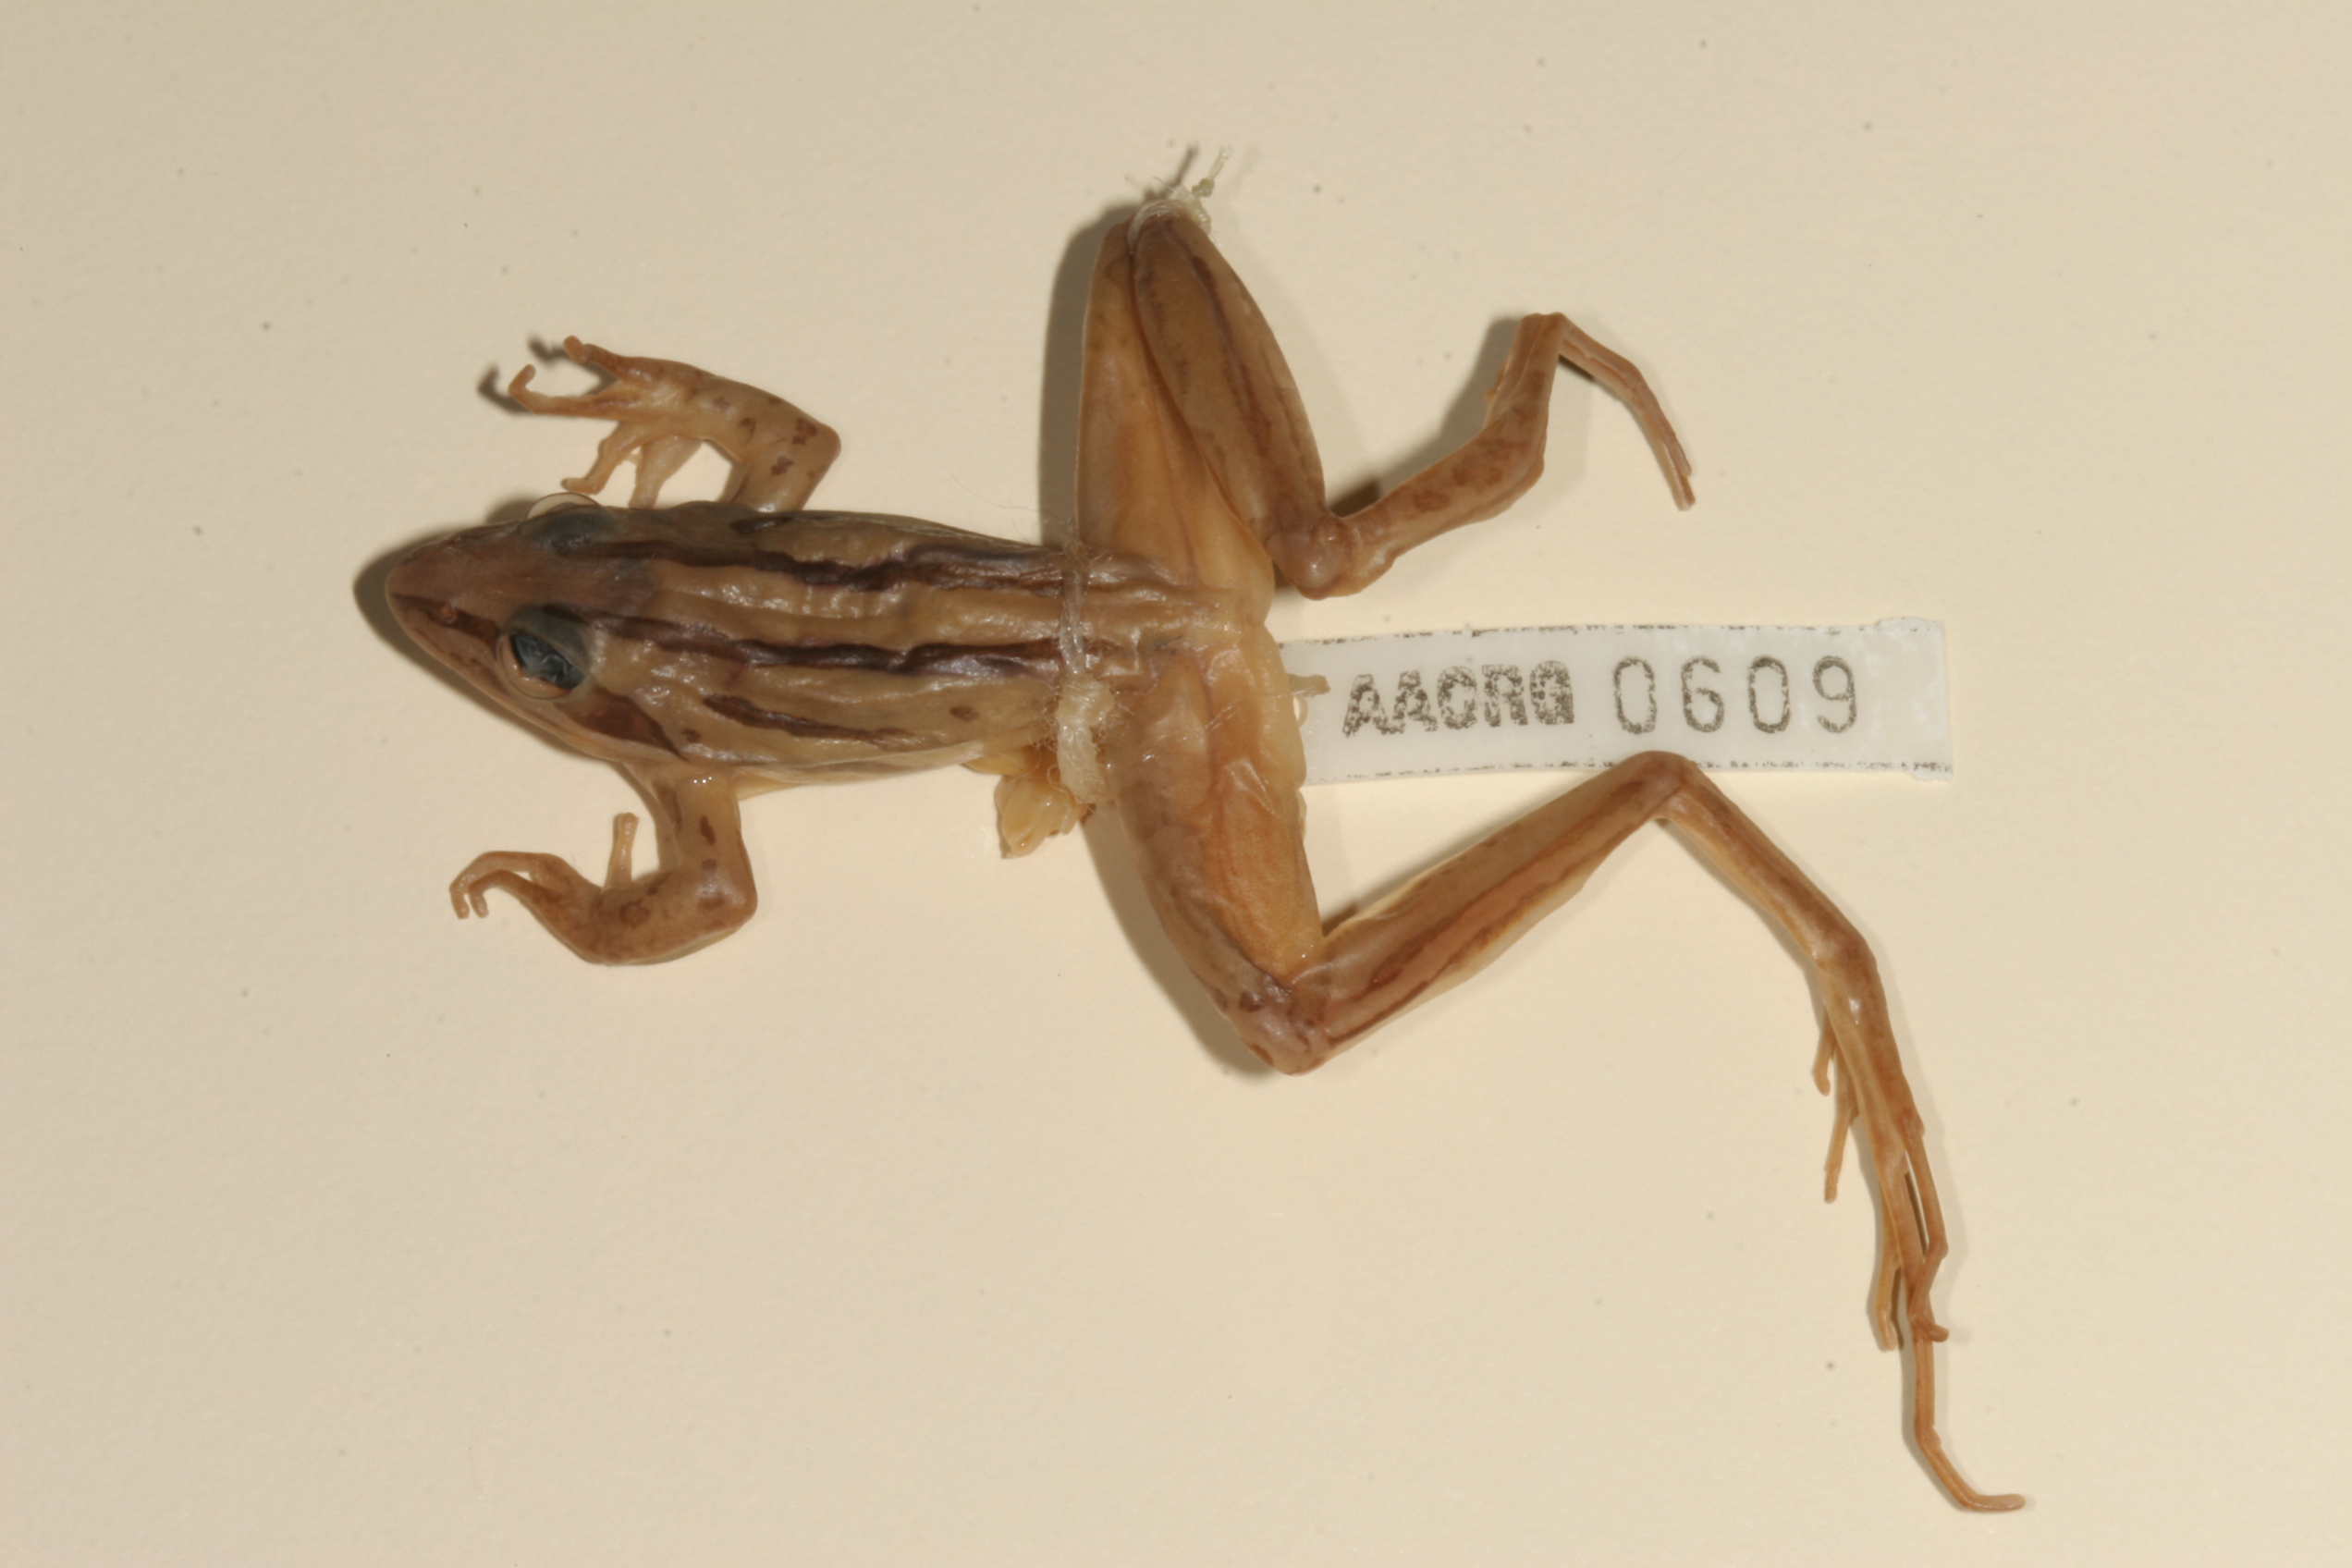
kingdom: Animalia
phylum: Chordata
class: Amphibia
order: Anura
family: Pyxicephalidae
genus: Strongylopus
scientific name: Strongylopus fasciatus
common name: Striped stream frog
